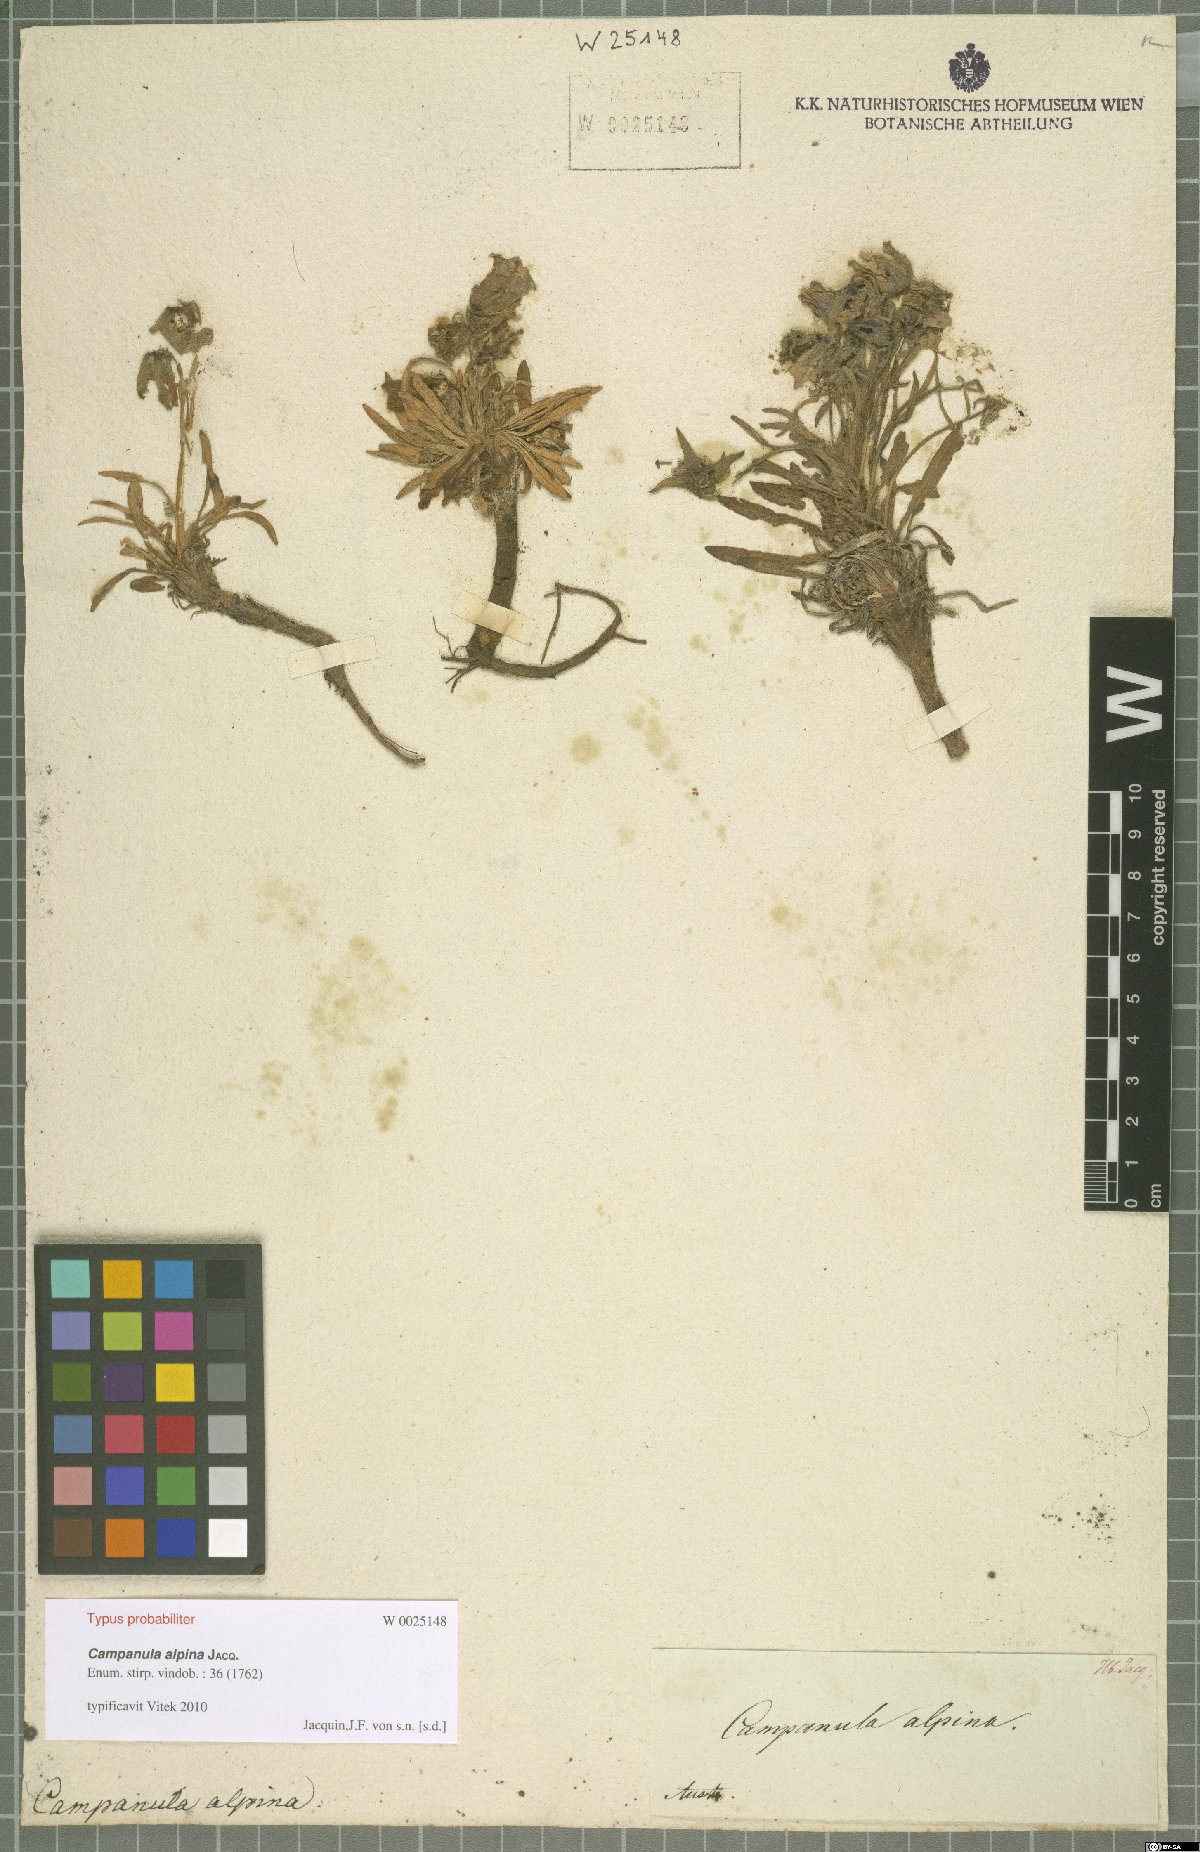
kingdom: Plantae
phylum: Tracheophyta
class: Magnoliopsida
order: Asterales
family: Campanulaceae
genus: Campanula
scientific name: Campanula alpina
